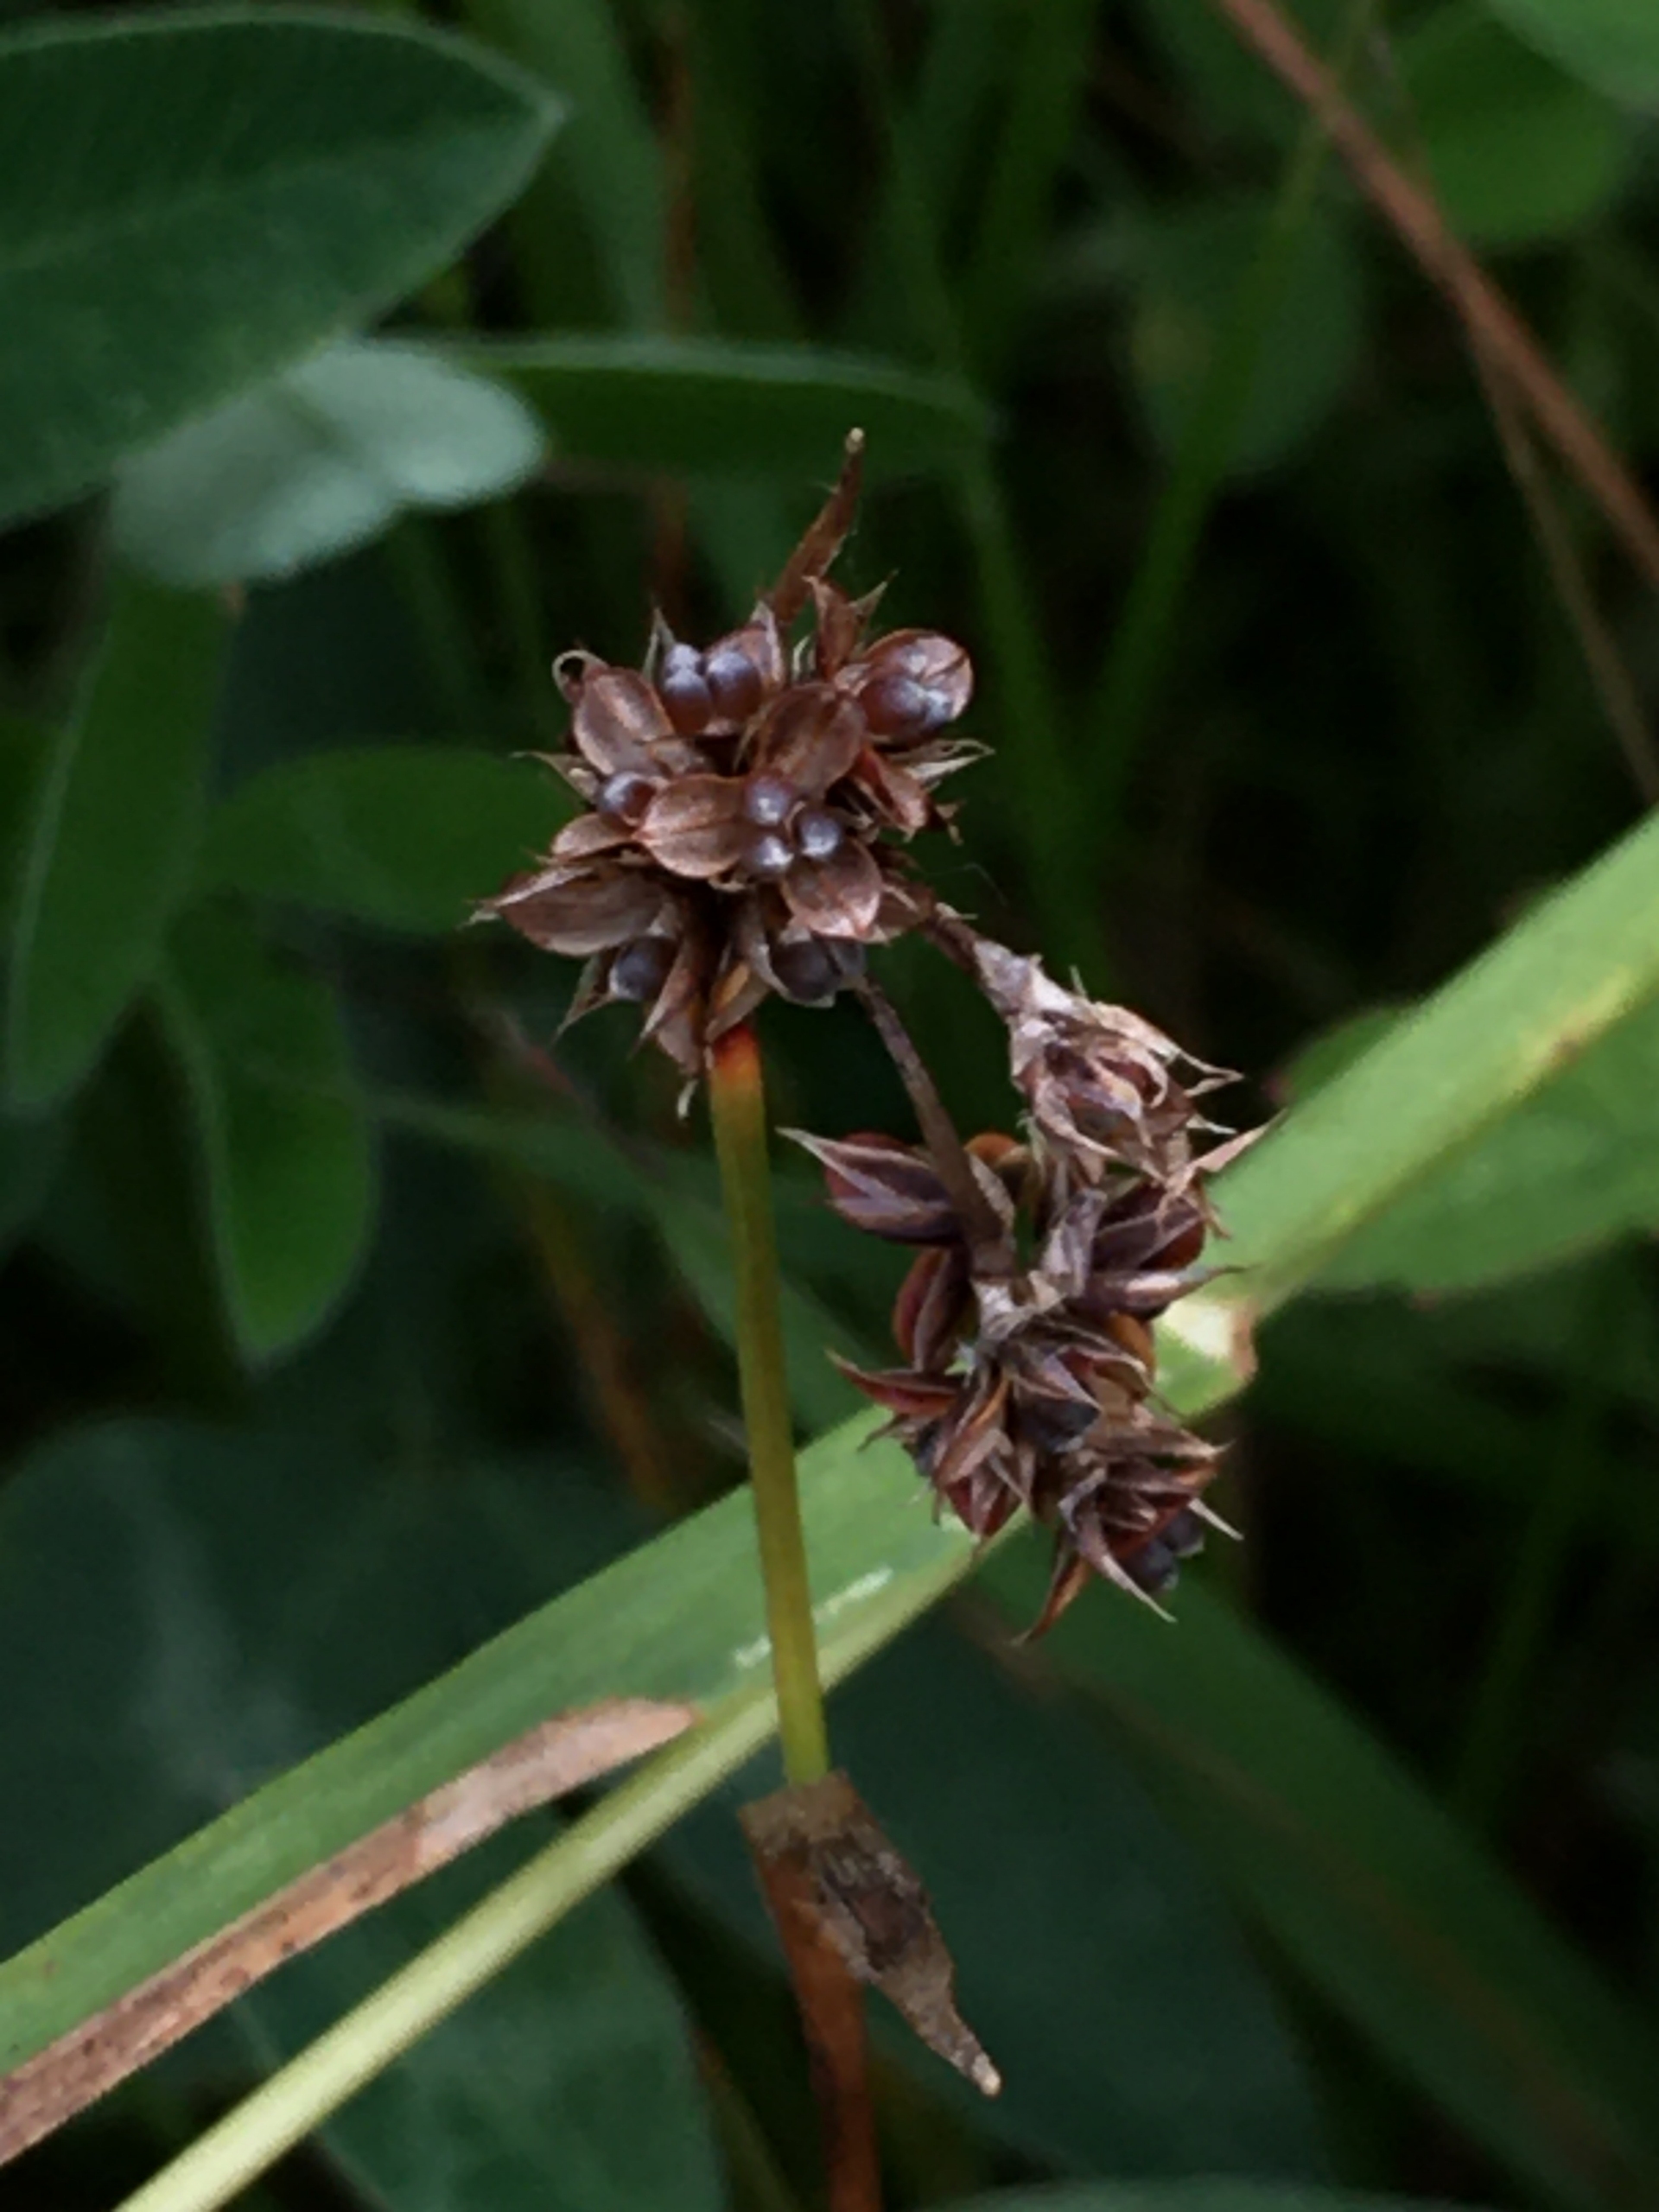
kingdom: Plantae
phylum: Tracheophyta
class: Liliopsida
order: Poales
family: Juncaceae
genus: Luzula
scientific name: Luzula campestris
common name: Mark-frytle
